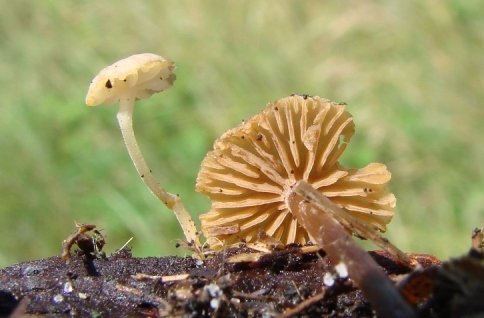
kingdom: Fungi
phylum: Basidiomycota
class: Agaricomycetes
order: Agaricales
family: Hymenogastraceae
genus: Naucoria
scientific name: Naucoria escharioides
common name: lys elle-knaphat
